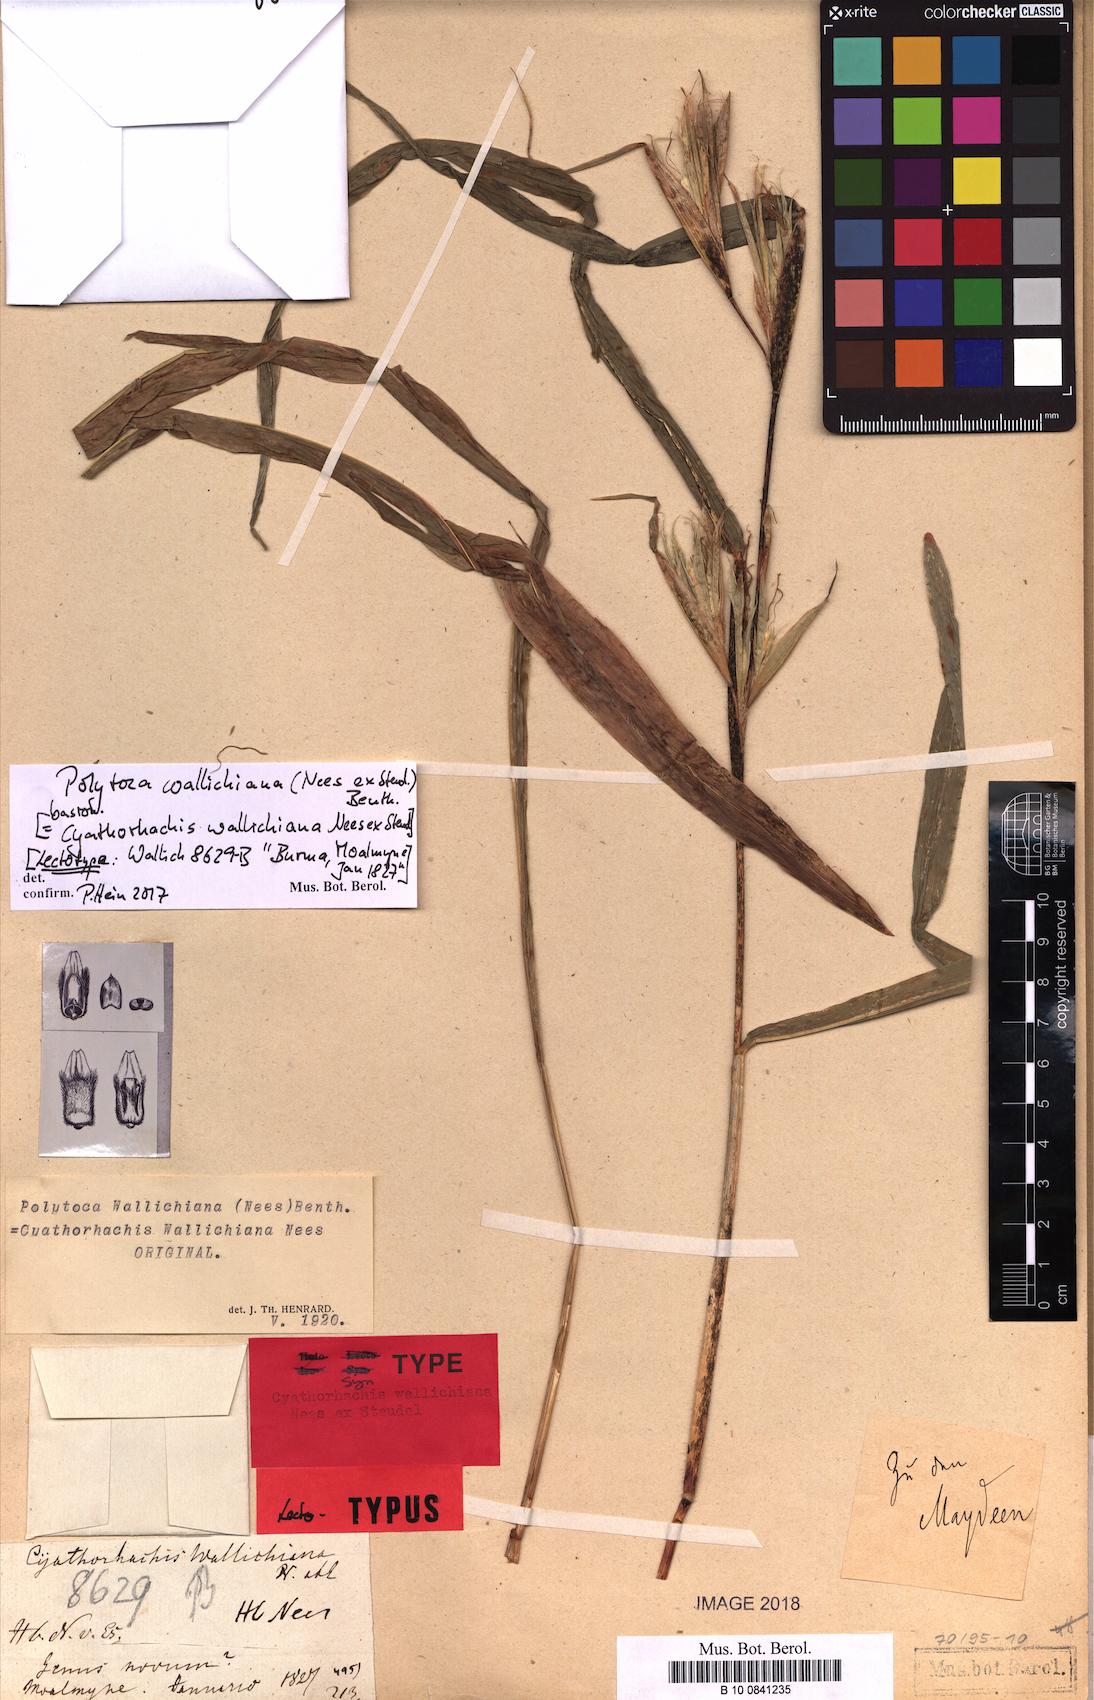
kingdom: Plantae
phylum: Tracheophyta
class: Liliopsida
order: Poales
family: Poaceae
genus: Polytoca
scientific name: Polytoca wallichiana
